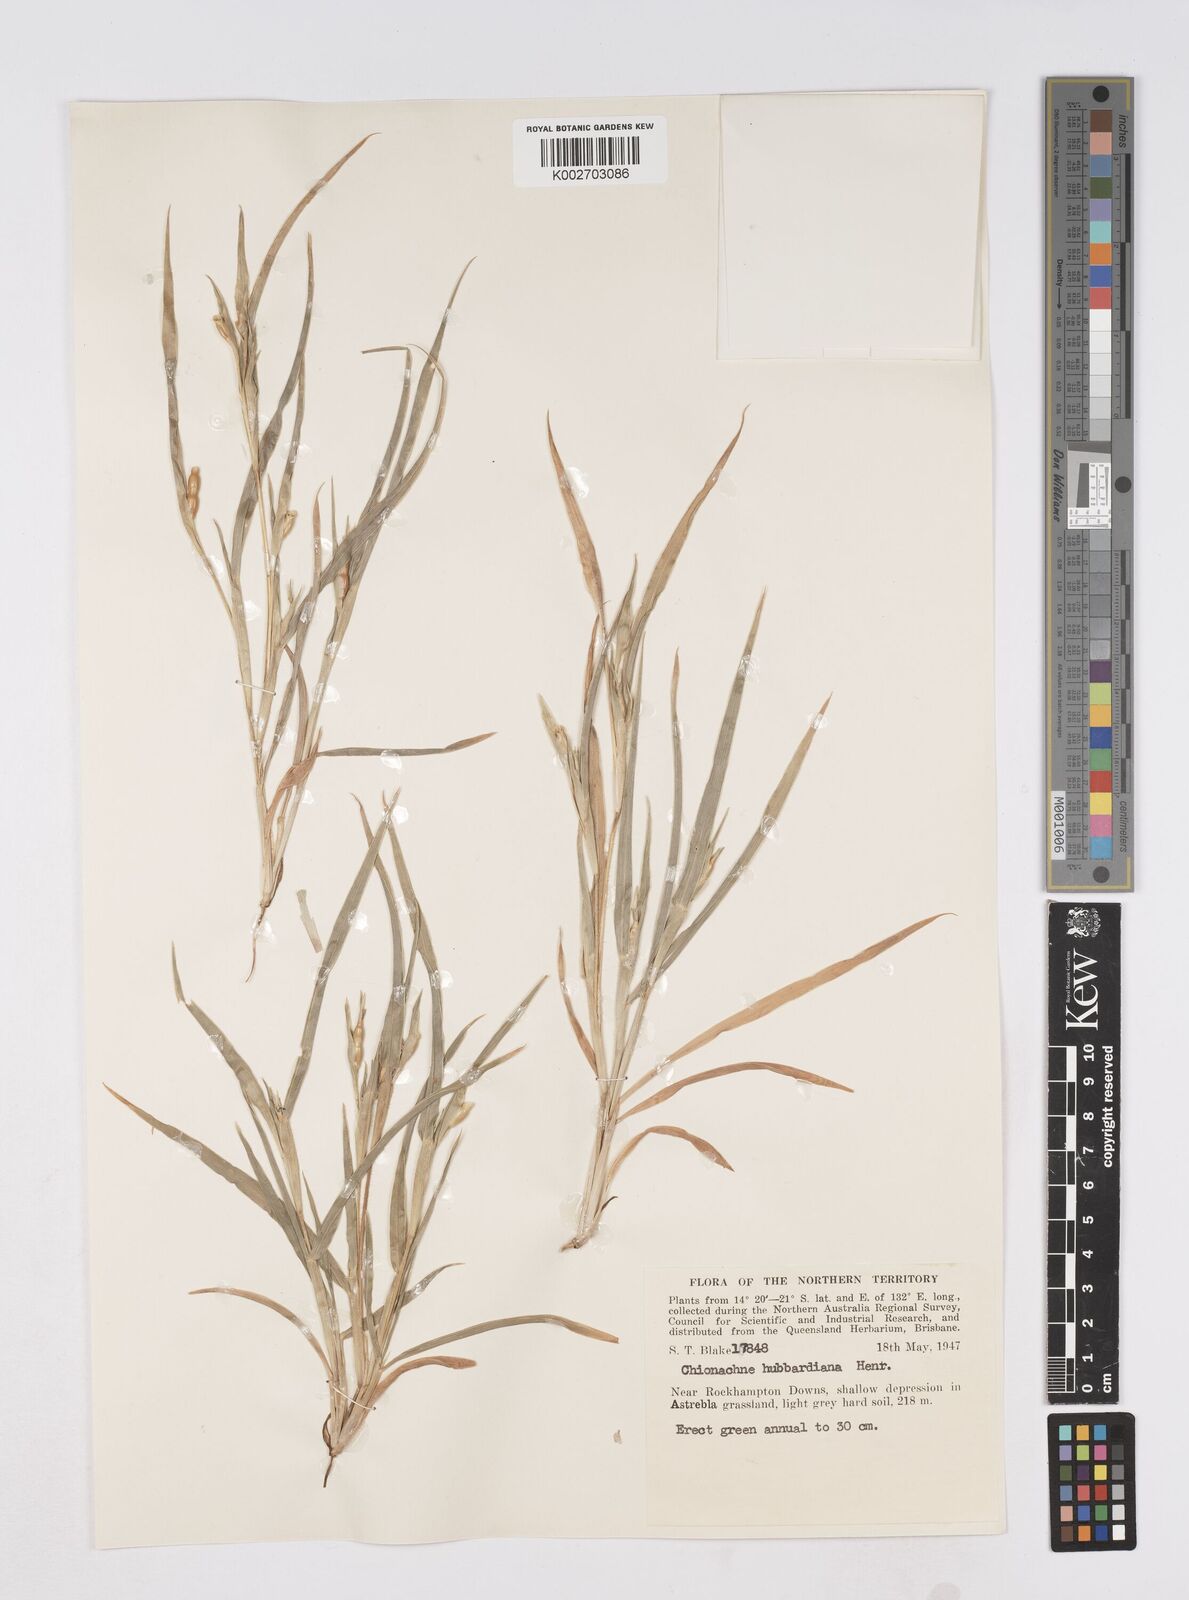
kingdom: Plantae
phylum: Tracheophyta
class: Liliopsida
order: Poales
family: Poaceae
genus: Polytoca
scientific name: Polytoca hubbardiana
